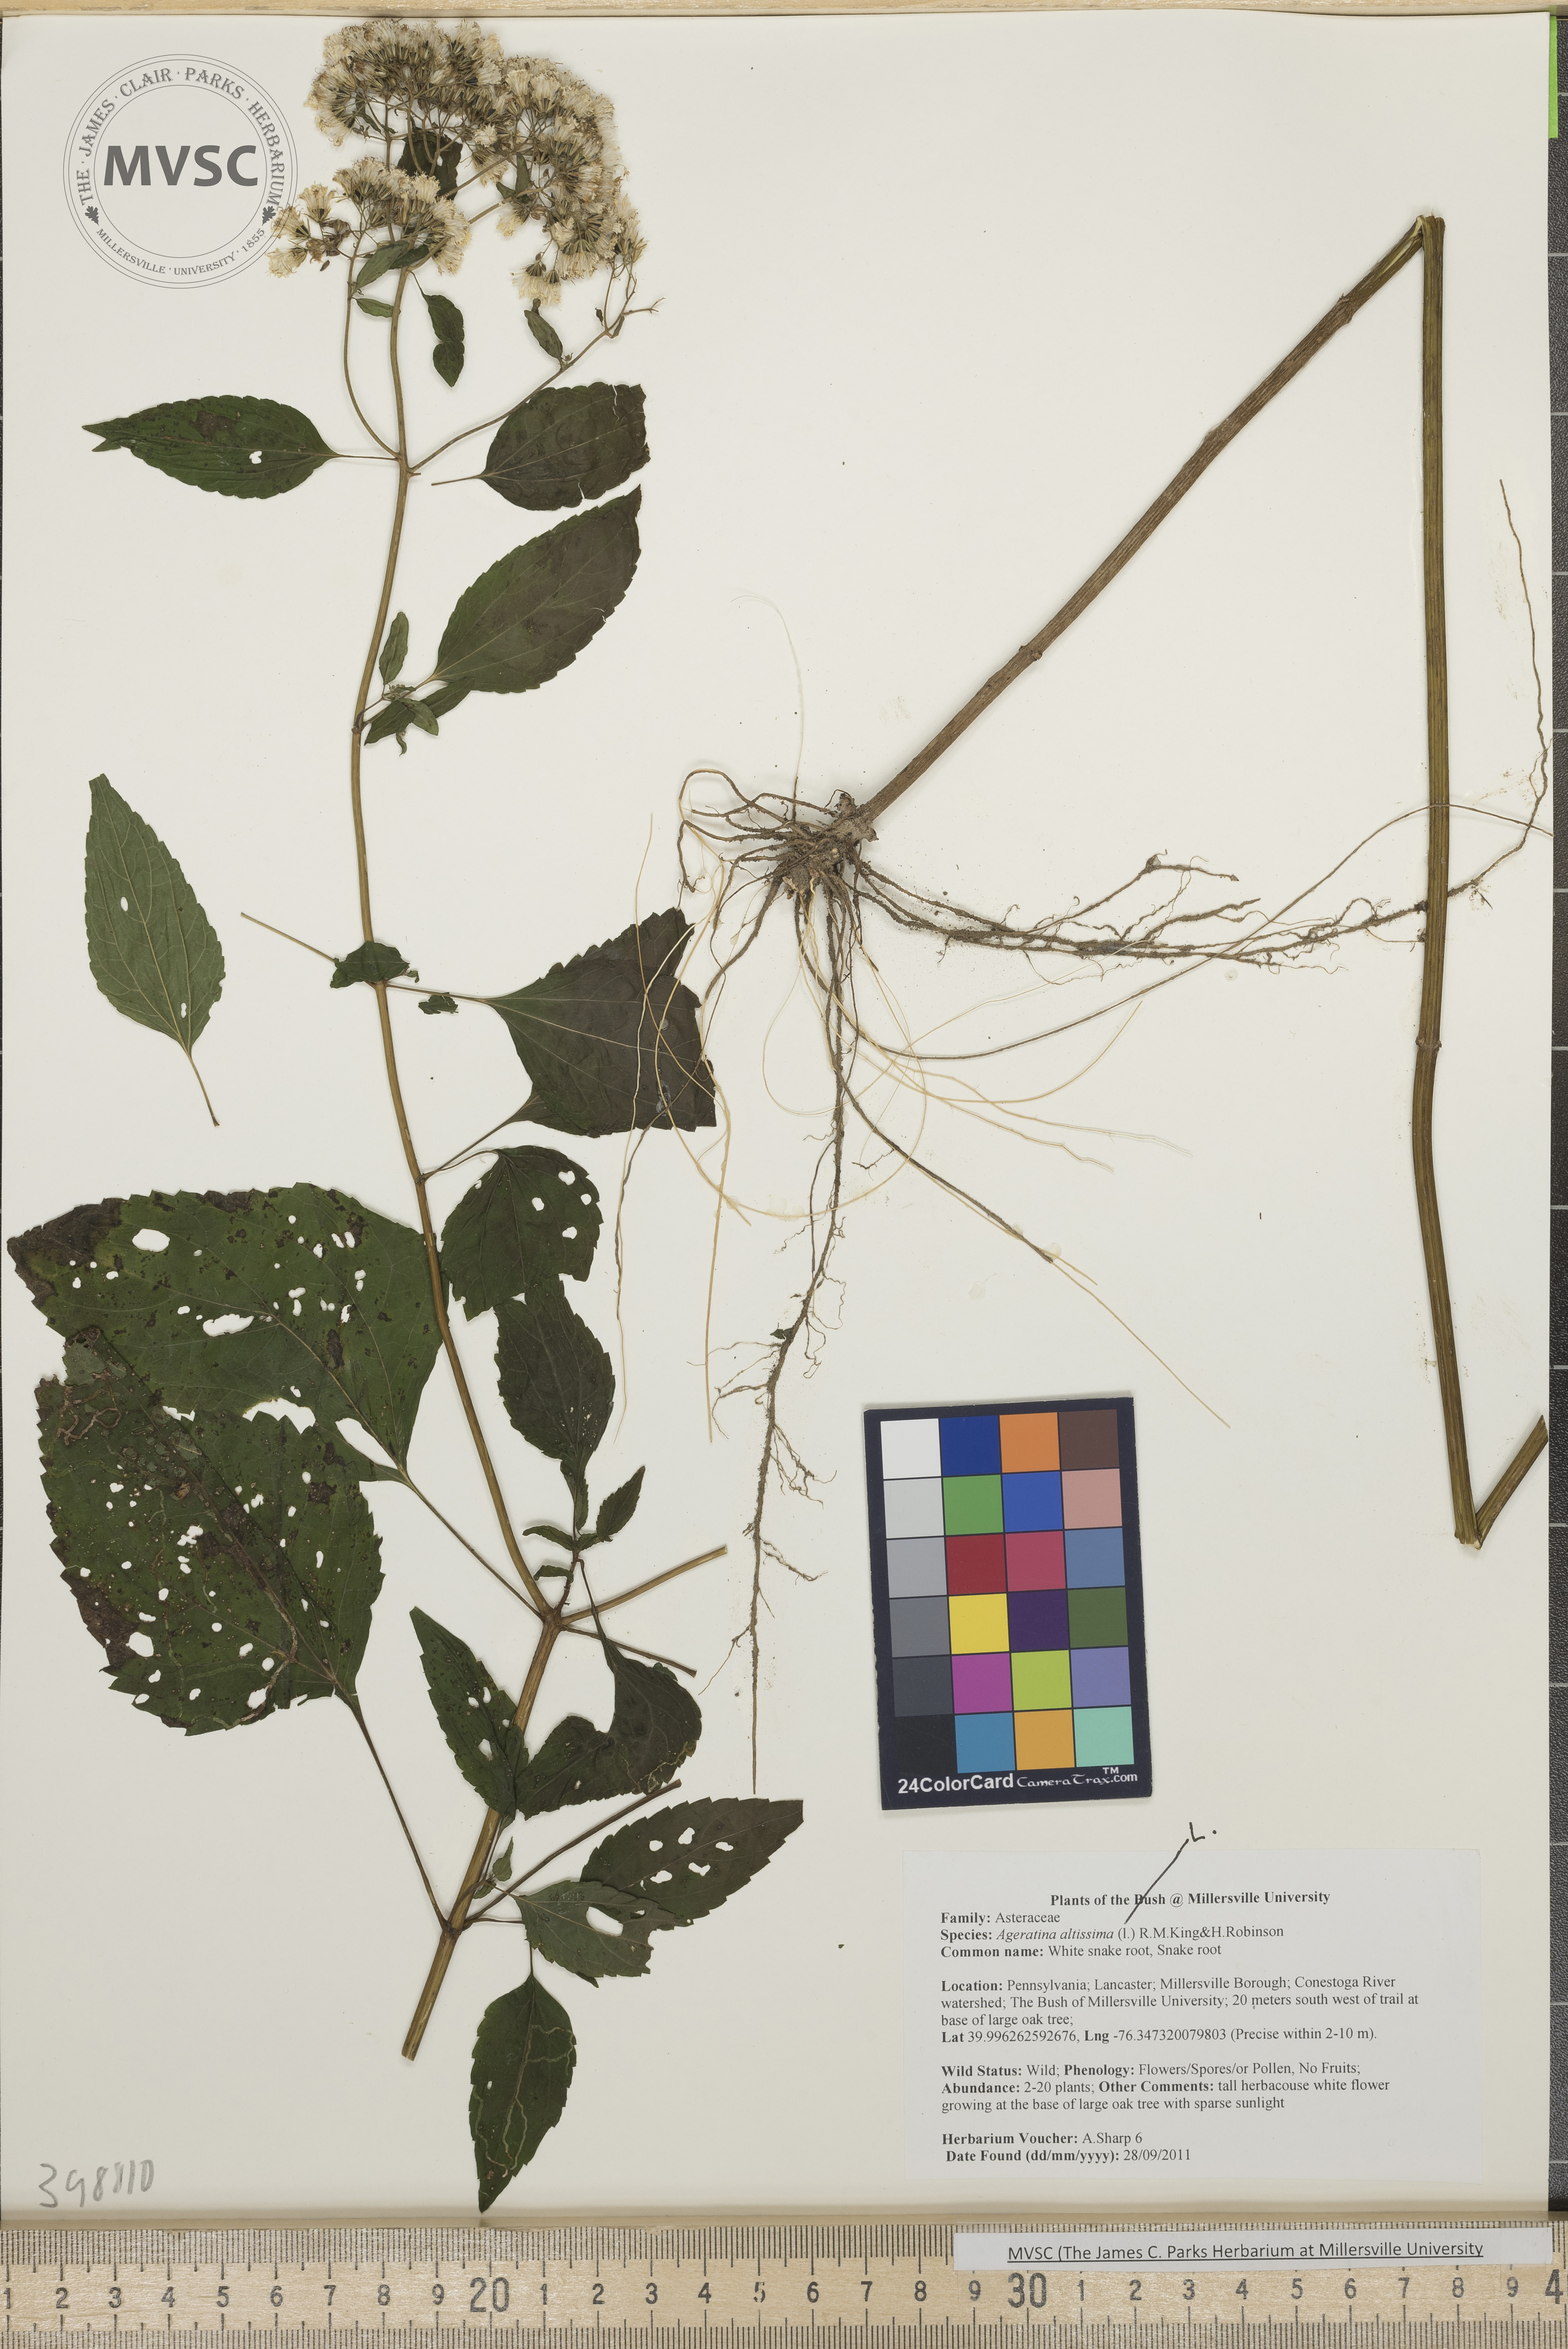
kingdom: Plantae
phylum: Tracheophyta
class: Magnoliopsida
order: Asterales
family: Asteraceae
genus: Ageratina
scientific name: Ageratina altissima
